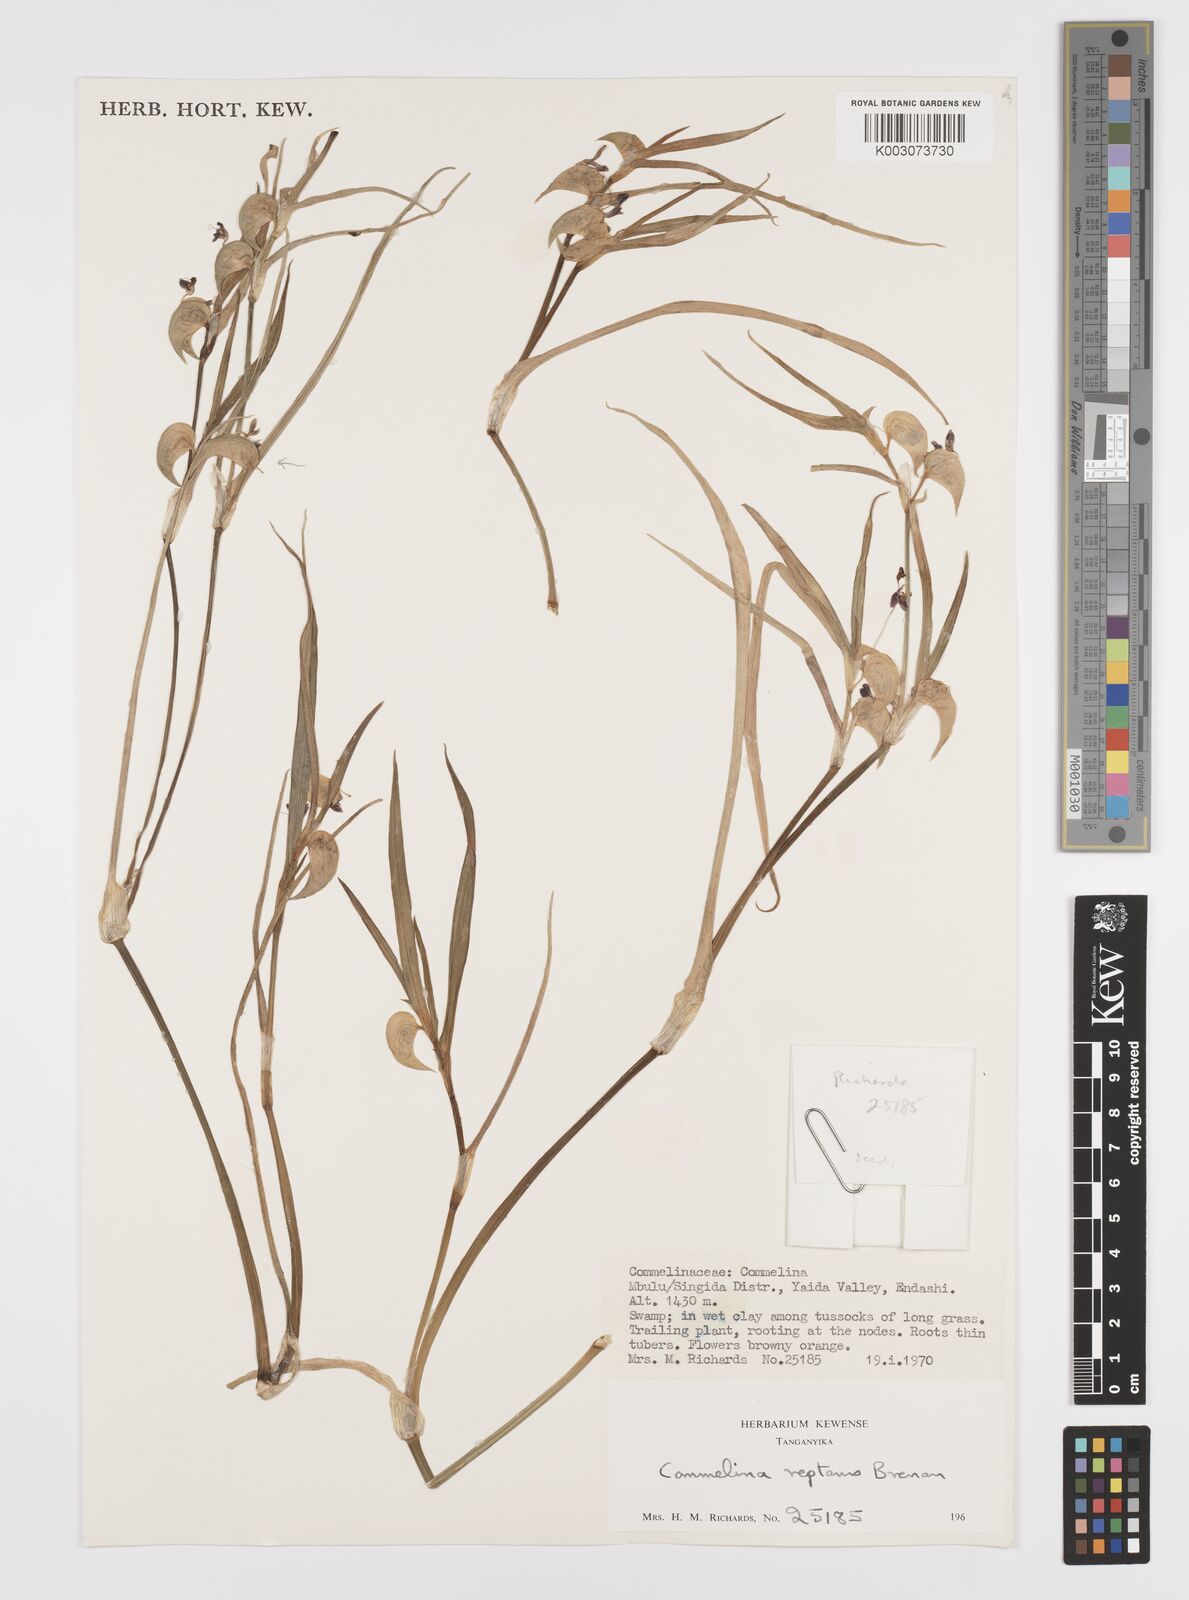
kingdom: Plantae
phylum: Tracheophyta
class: Liliopsida
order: Commelinales
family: Commelinaceae
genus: Commelina
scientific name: Commelina reptans
